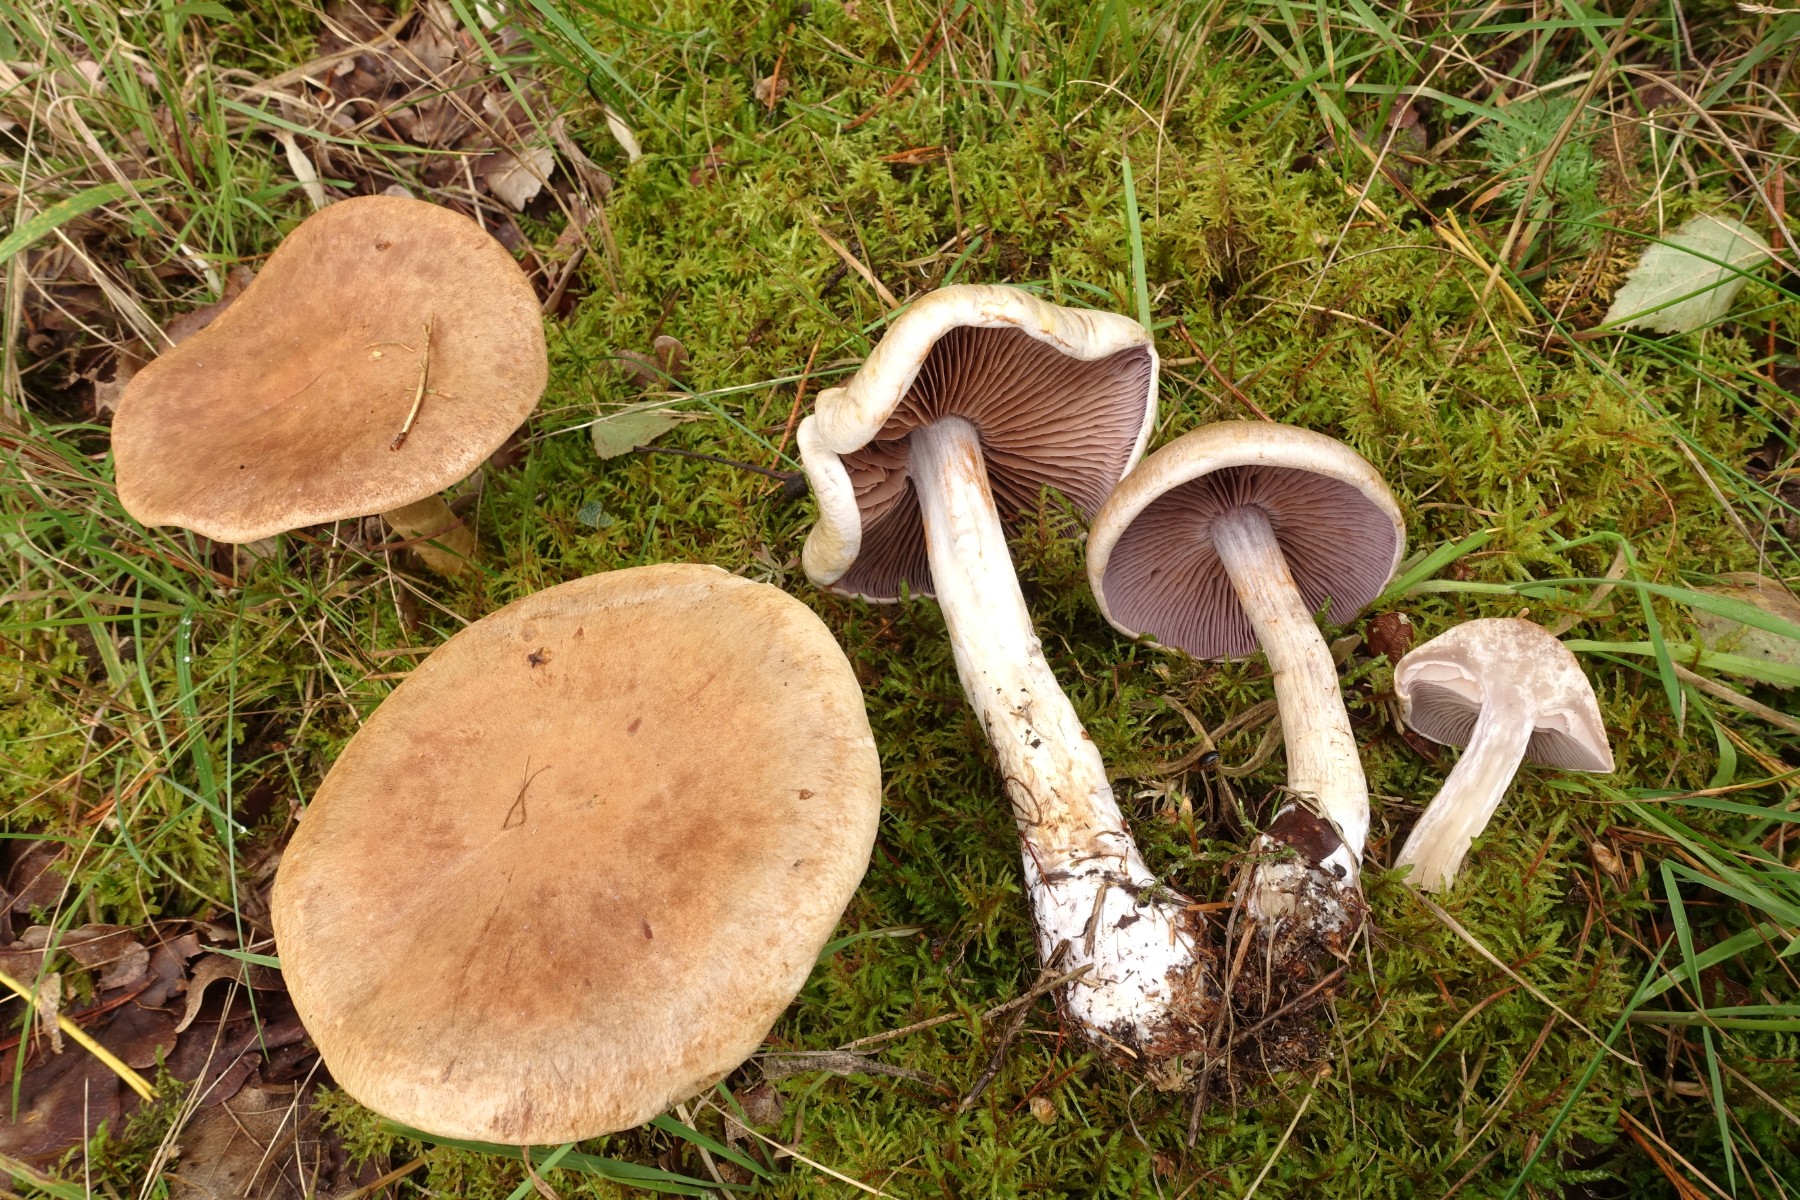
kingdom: Fungi
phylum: Basidiomycota
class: Agaricomycetes
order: Agaricales
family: Cortinariaceae
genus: Cortinarius
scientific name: Cortinarius
